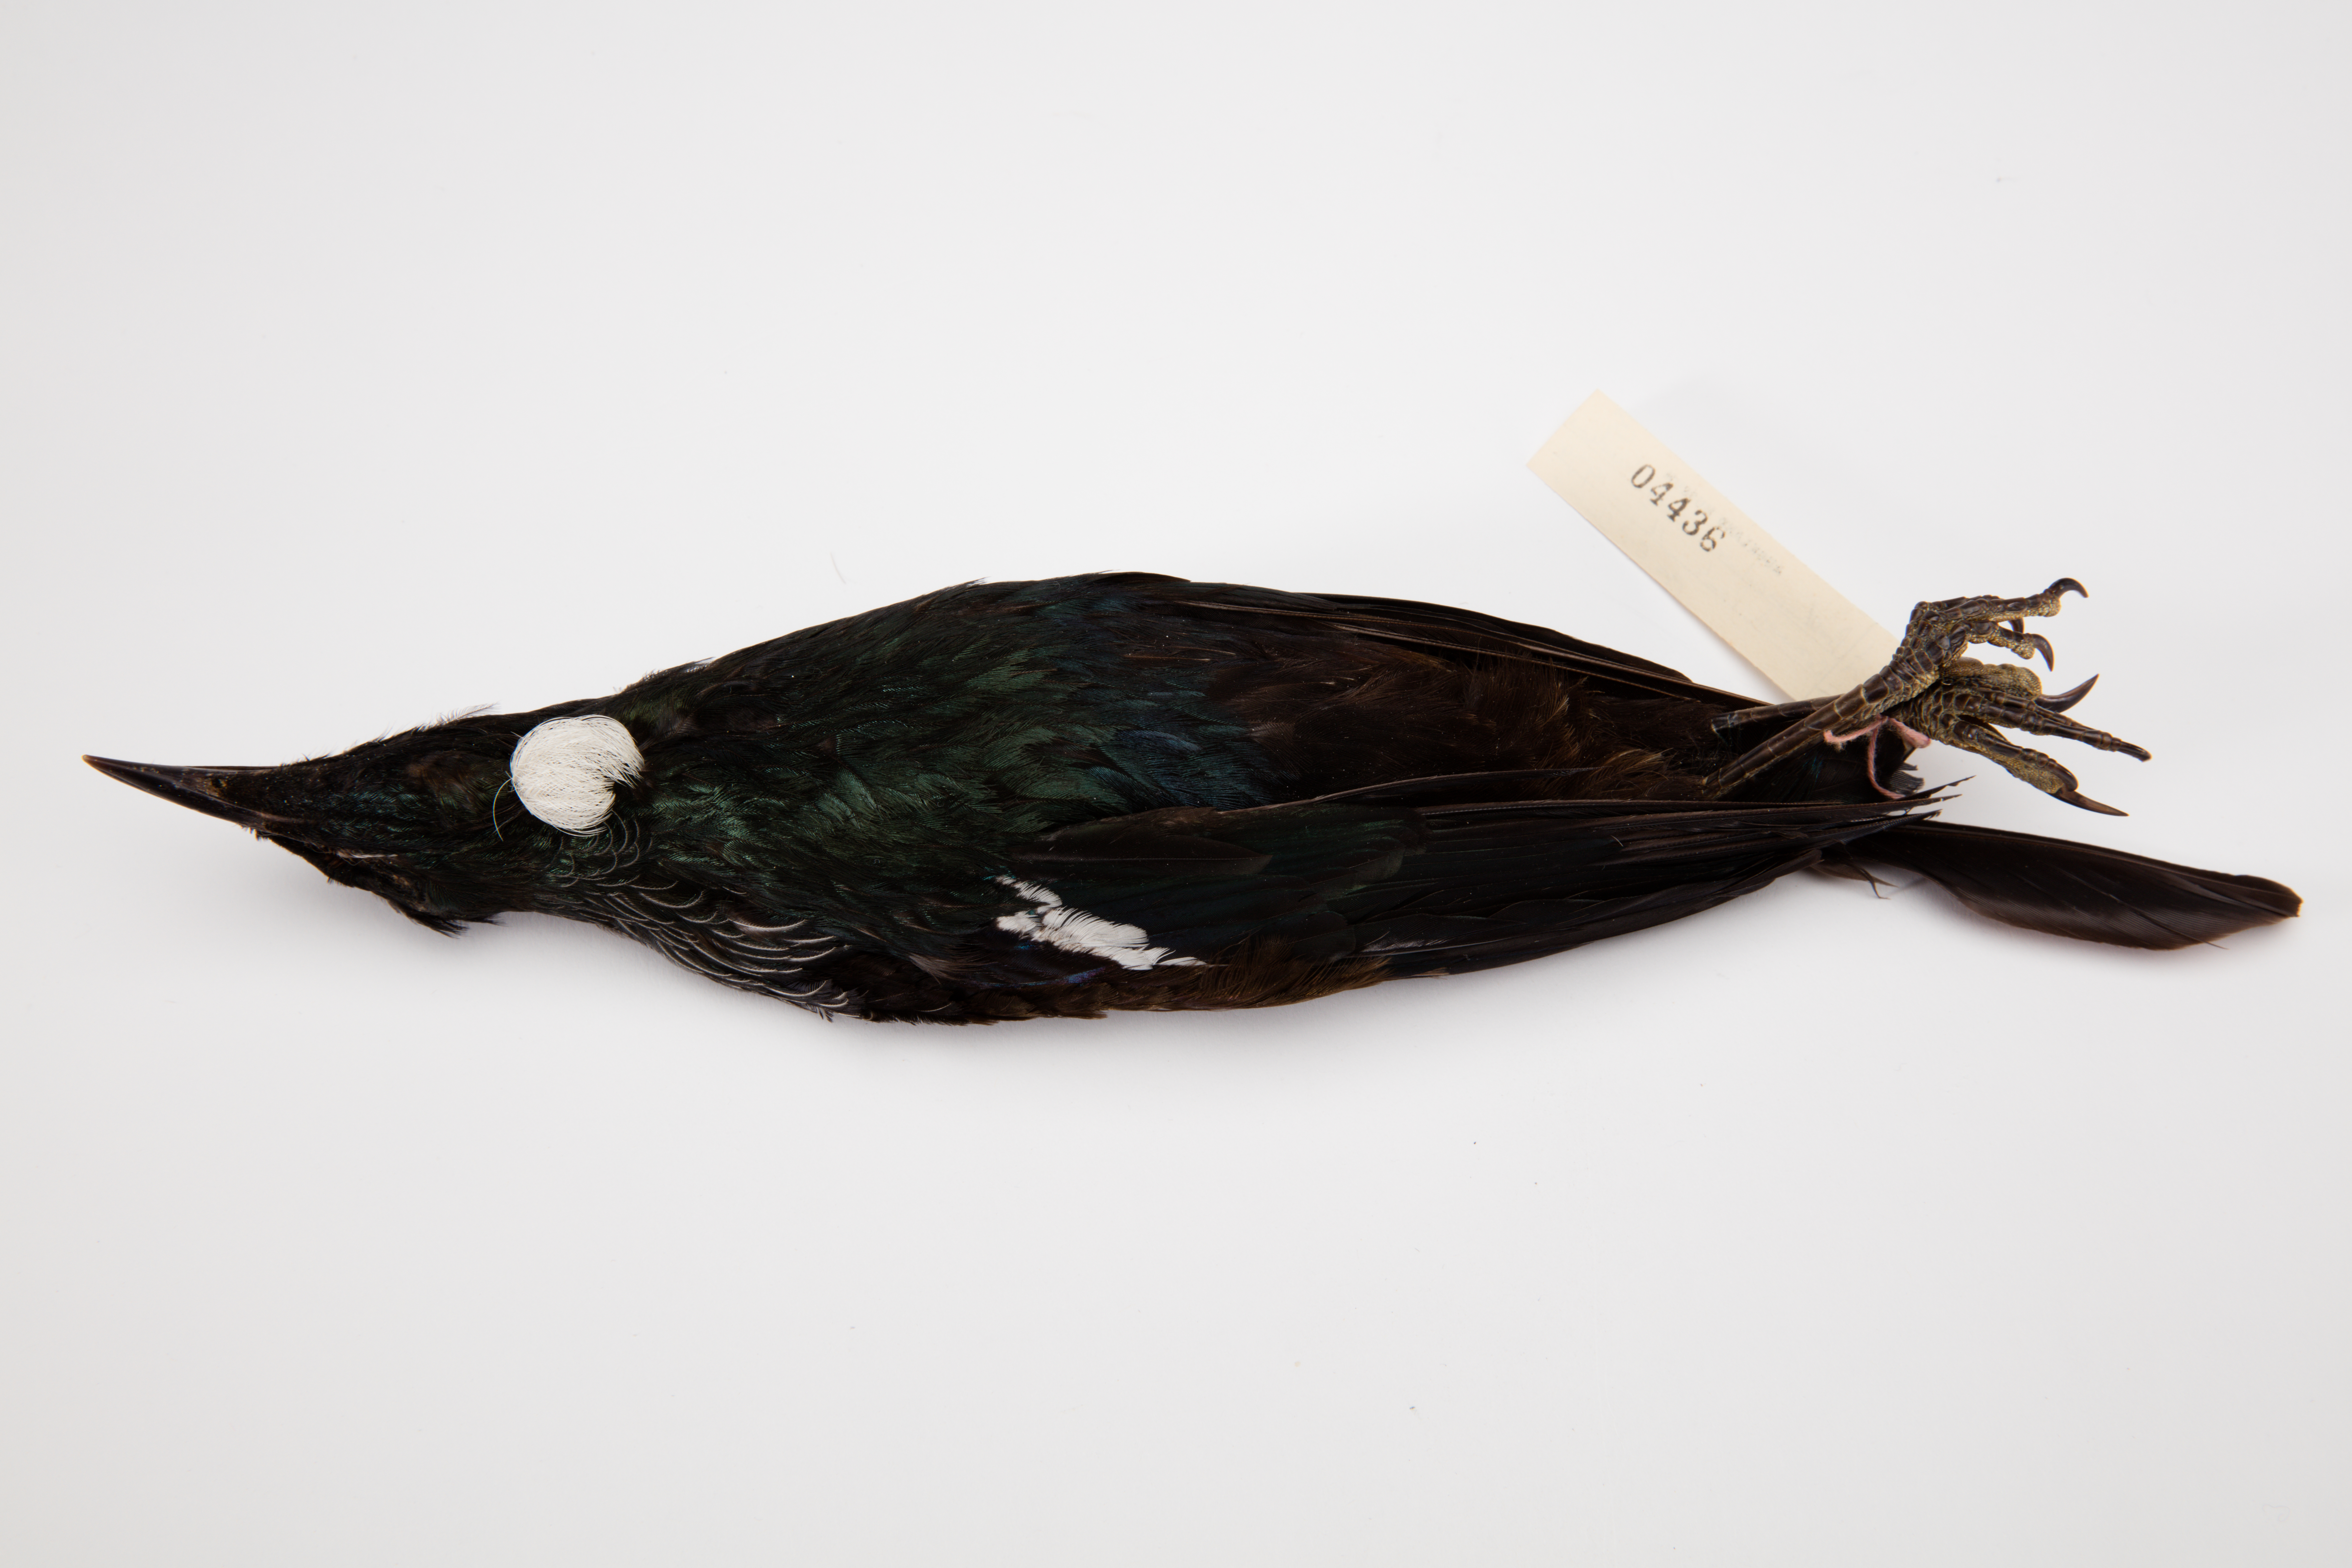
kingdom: Animalia
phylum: Chordata
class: Aves
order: Passeriformes
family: Meliphagidae
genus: Prosthemadera
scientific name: Prosthemadera novaeseelandiae
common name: Tui
